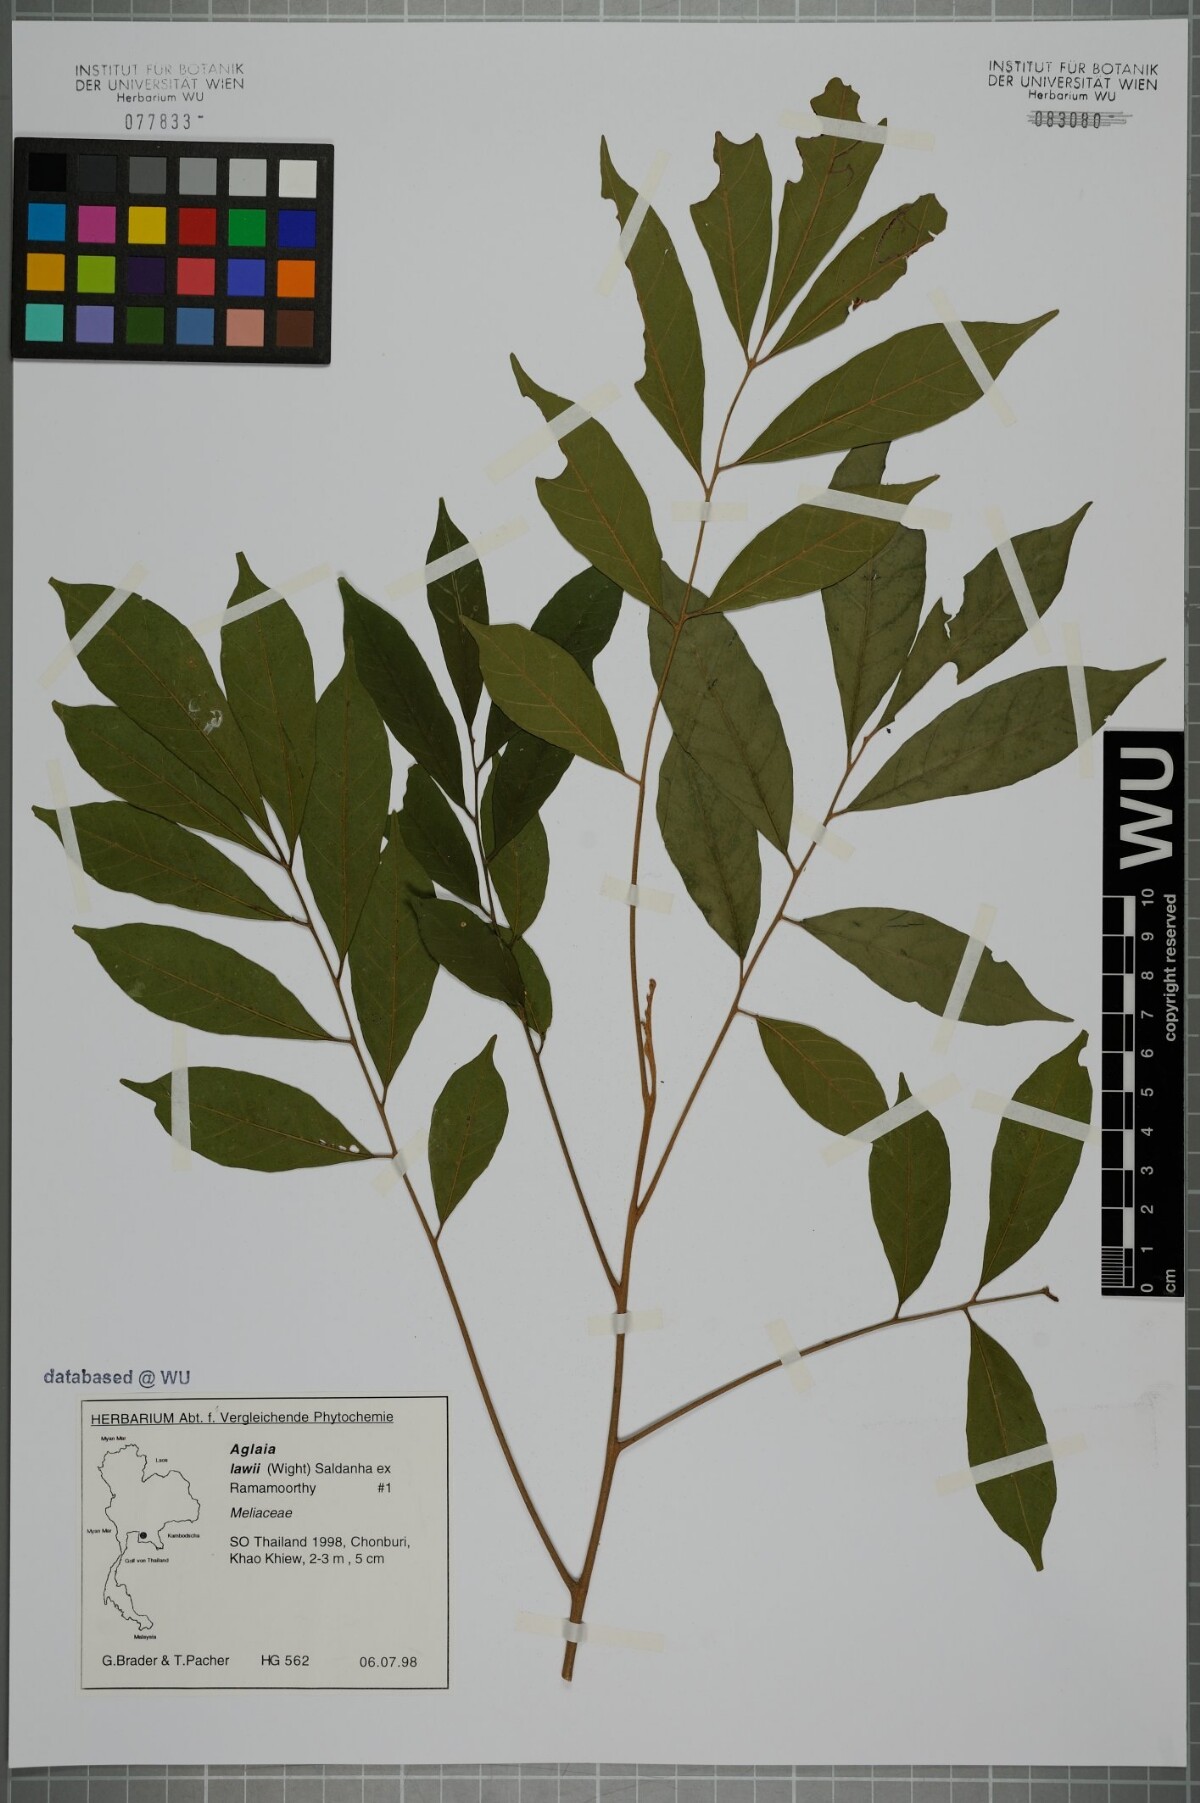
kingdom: Plantae
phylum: Tracheophyta
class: Magnoliopsida
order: Sapindales
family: Meliaceae
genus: Aglaia
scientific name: Aglaia lawii
